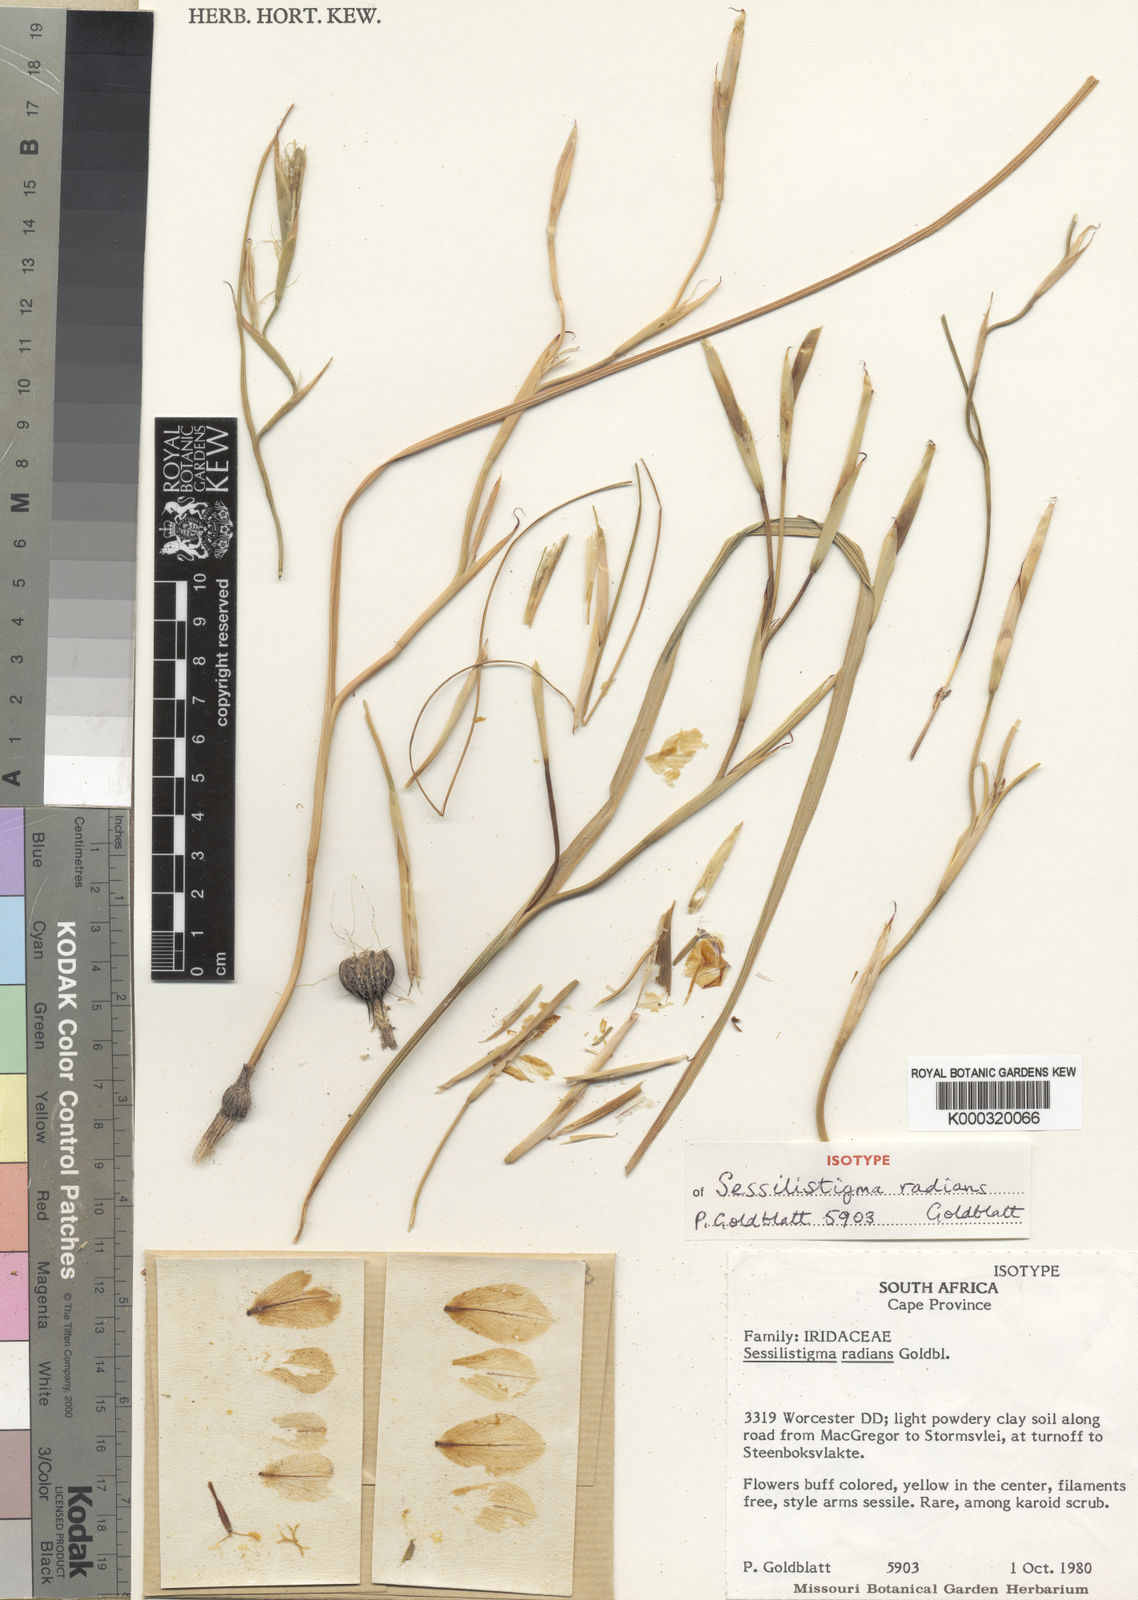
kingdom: Plantae
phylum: Tracheophyta
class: Liliopsida
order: Asparagales
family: Iridaceae
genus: Moraea
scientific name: Moraea radians
